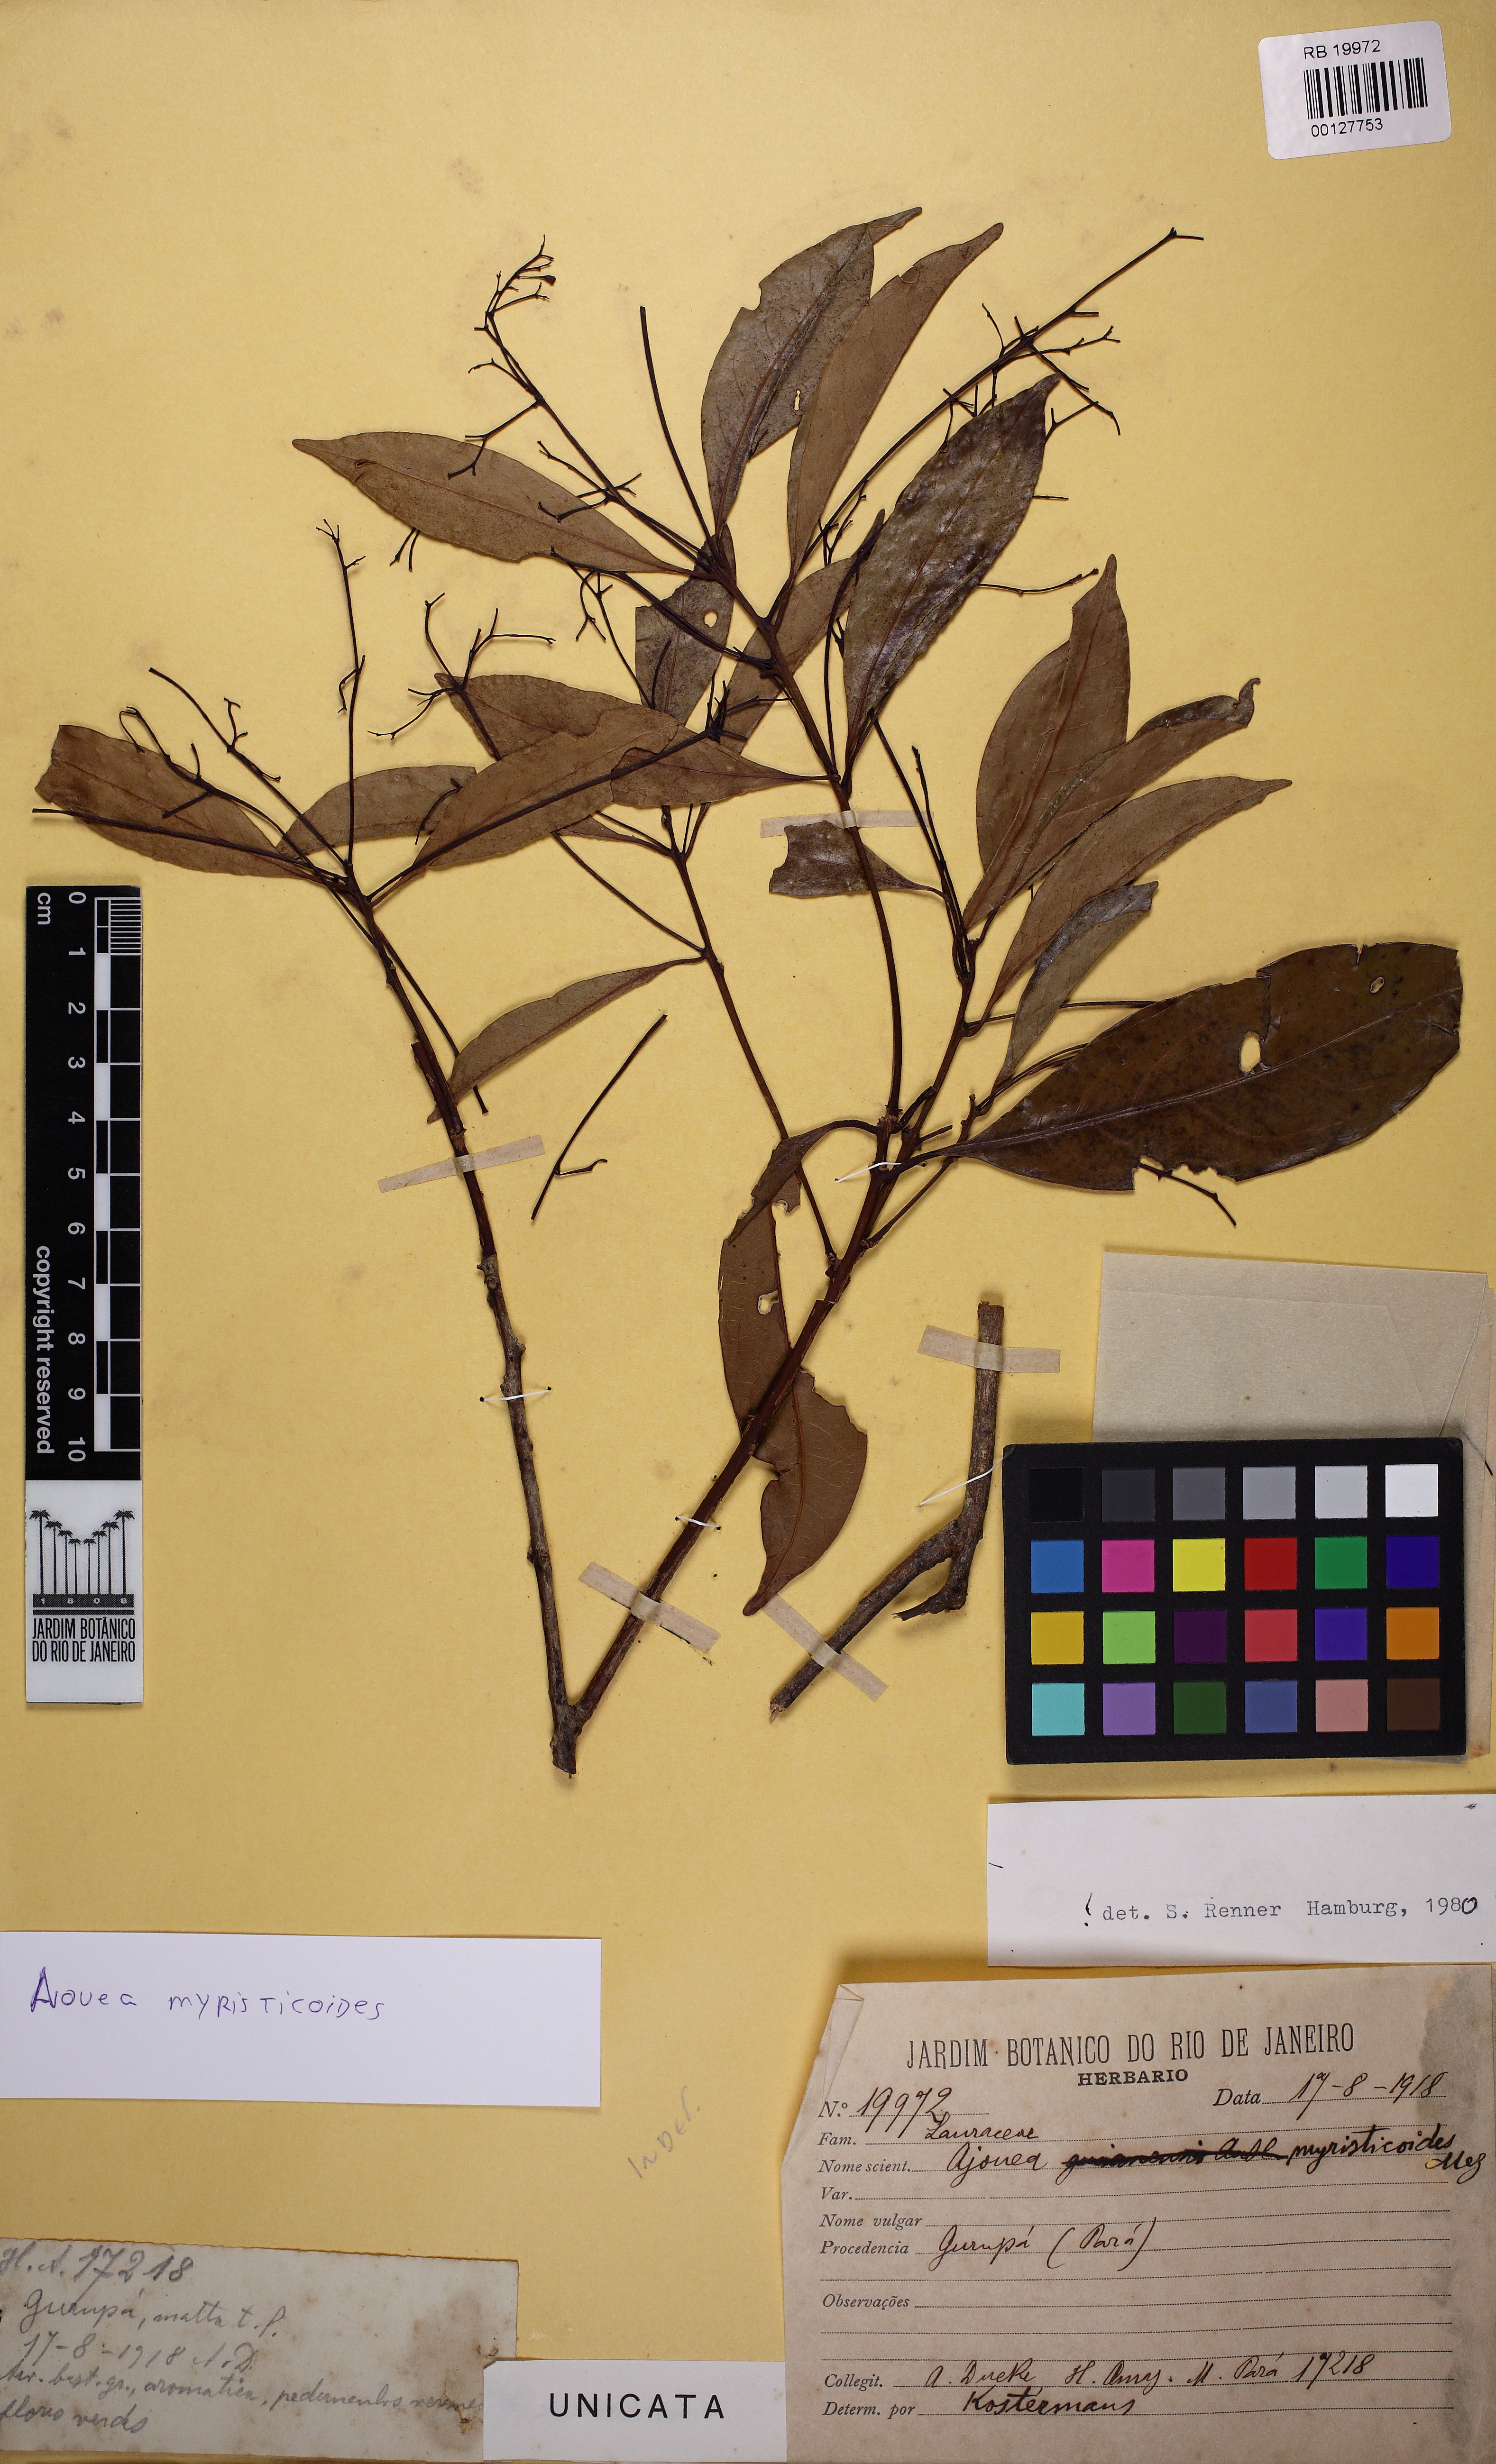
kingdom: Plantae
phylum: Tracheophyta
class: Magnoliopsida
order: Laurales
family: Lauraceae
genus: Aiouea
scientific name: Aiouea myristicoides
